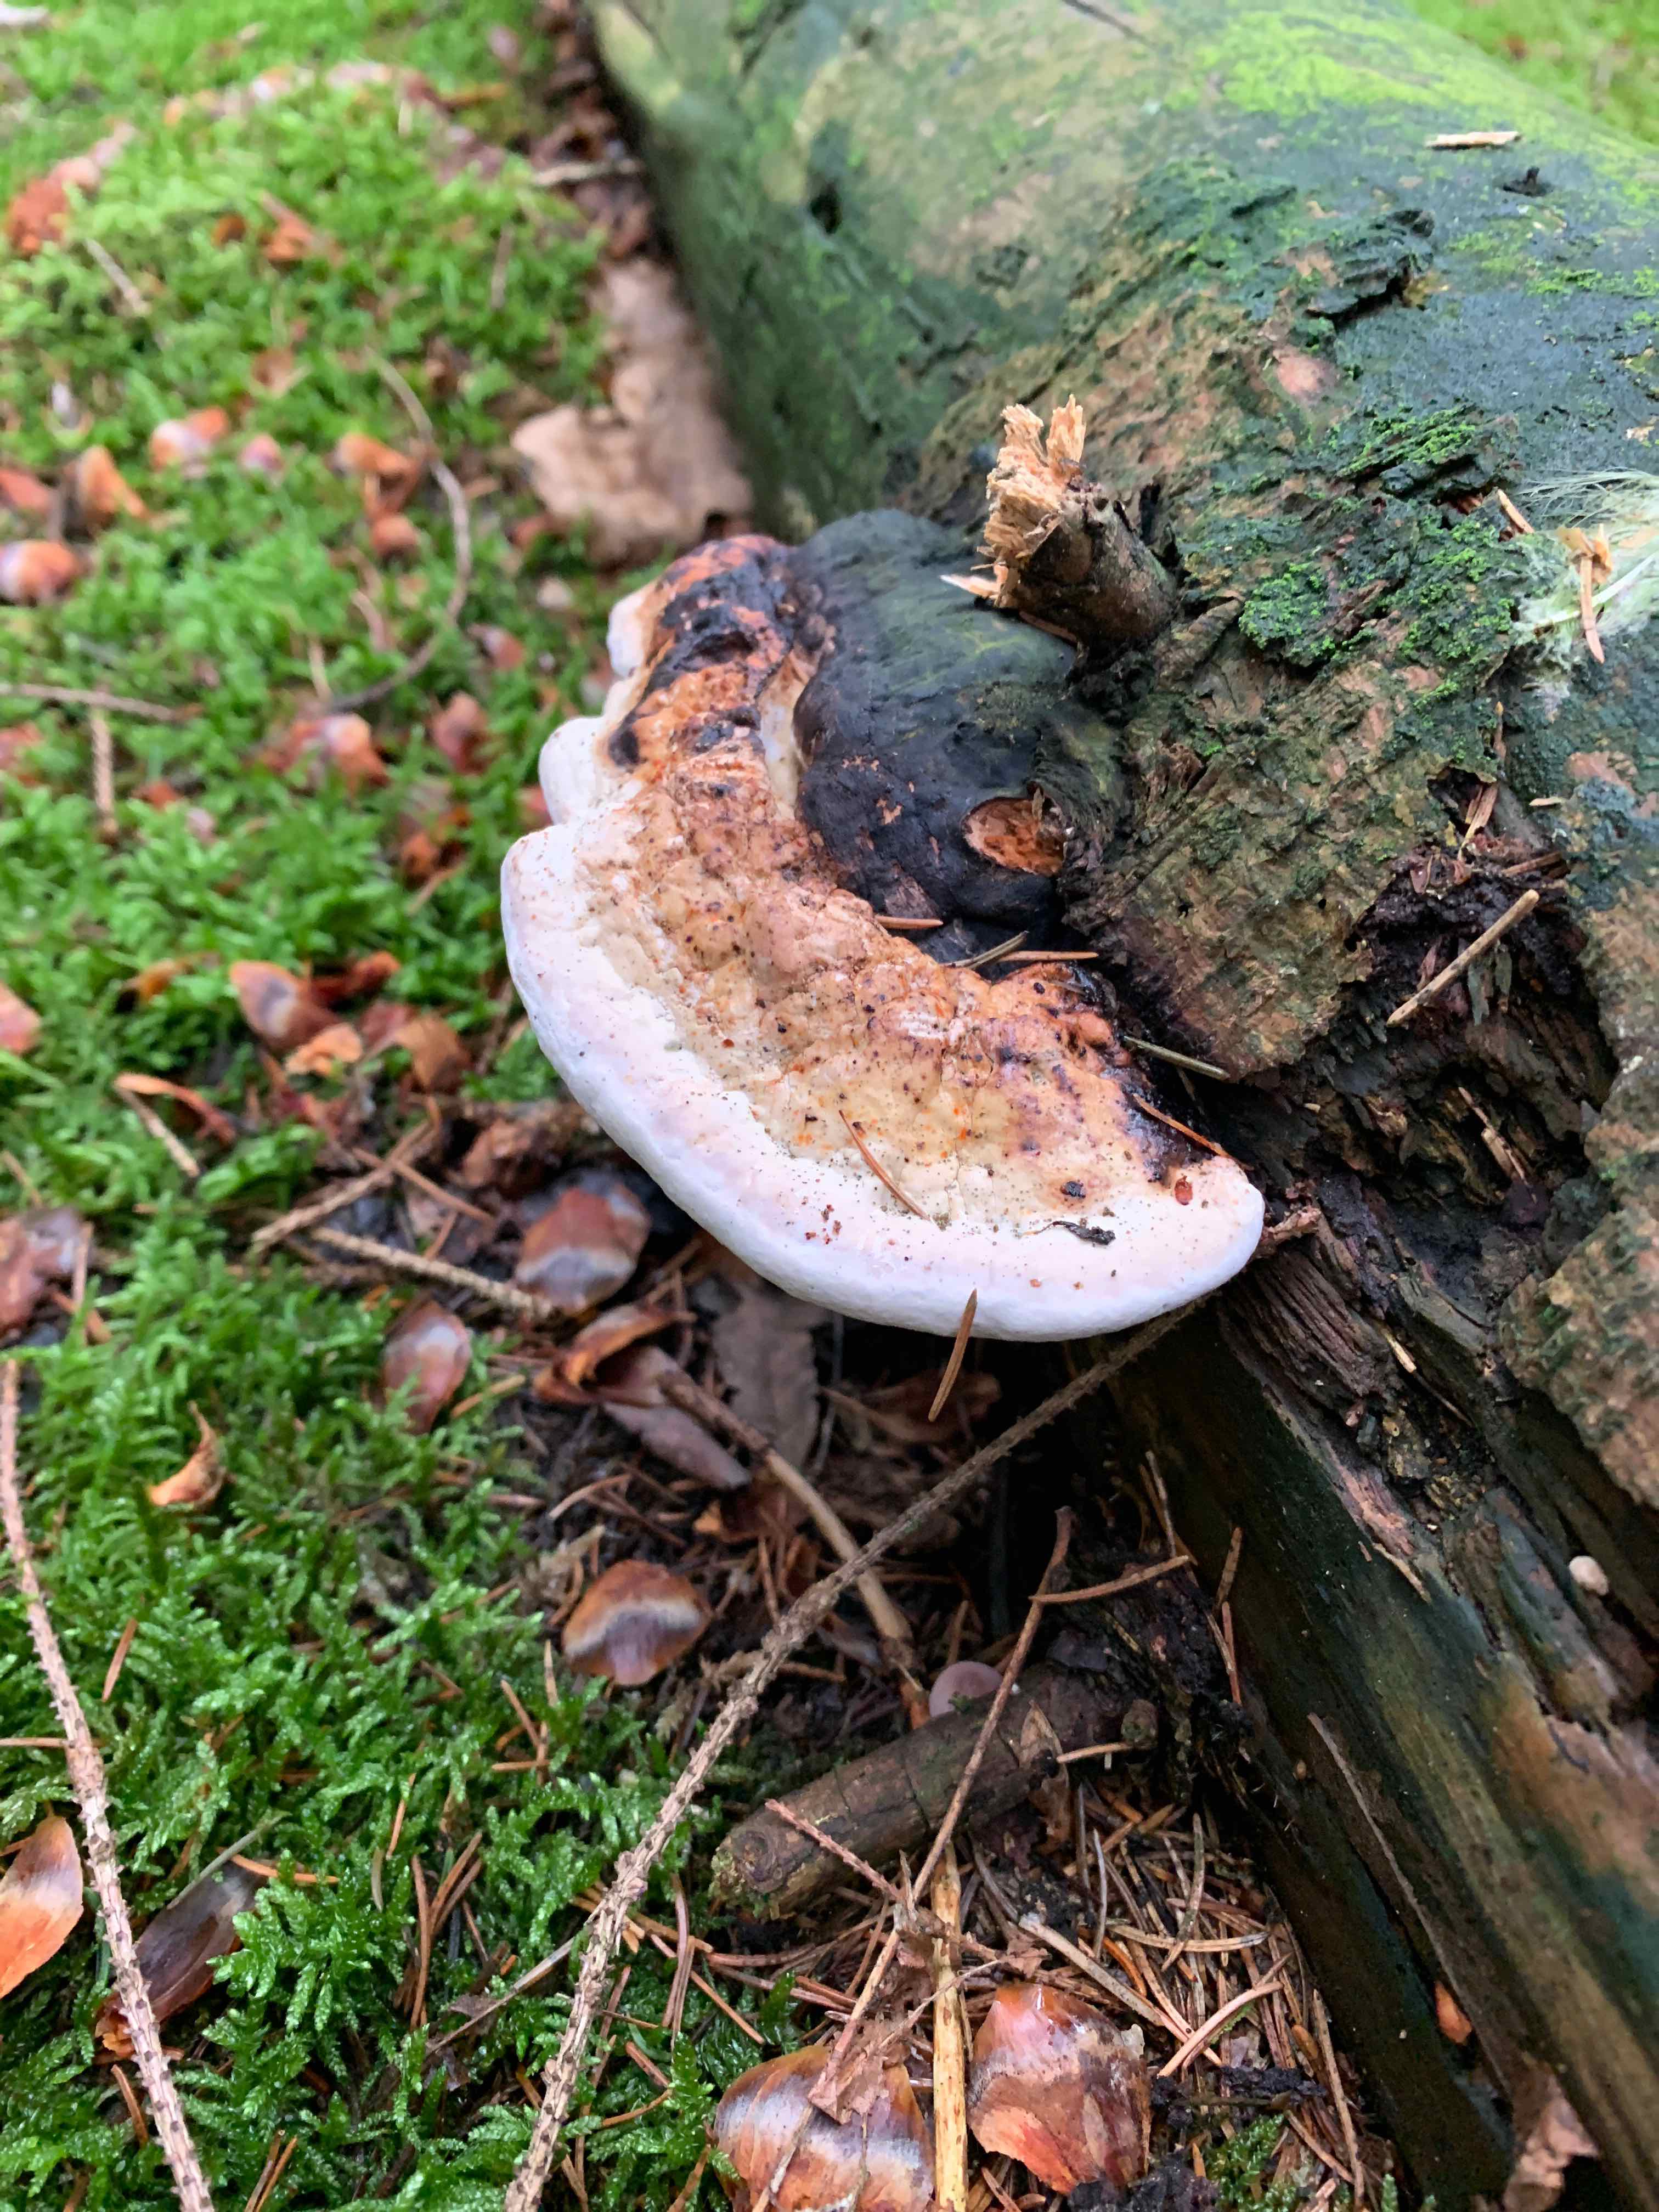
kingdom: Fungi
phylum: Basidiomycota
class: Agaricomycetes
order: Polyporales
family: Fomitopsidaceae
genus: Fomitopsis
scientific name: Fomitopsis pinicola
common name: randbæltet hovporesvamp
